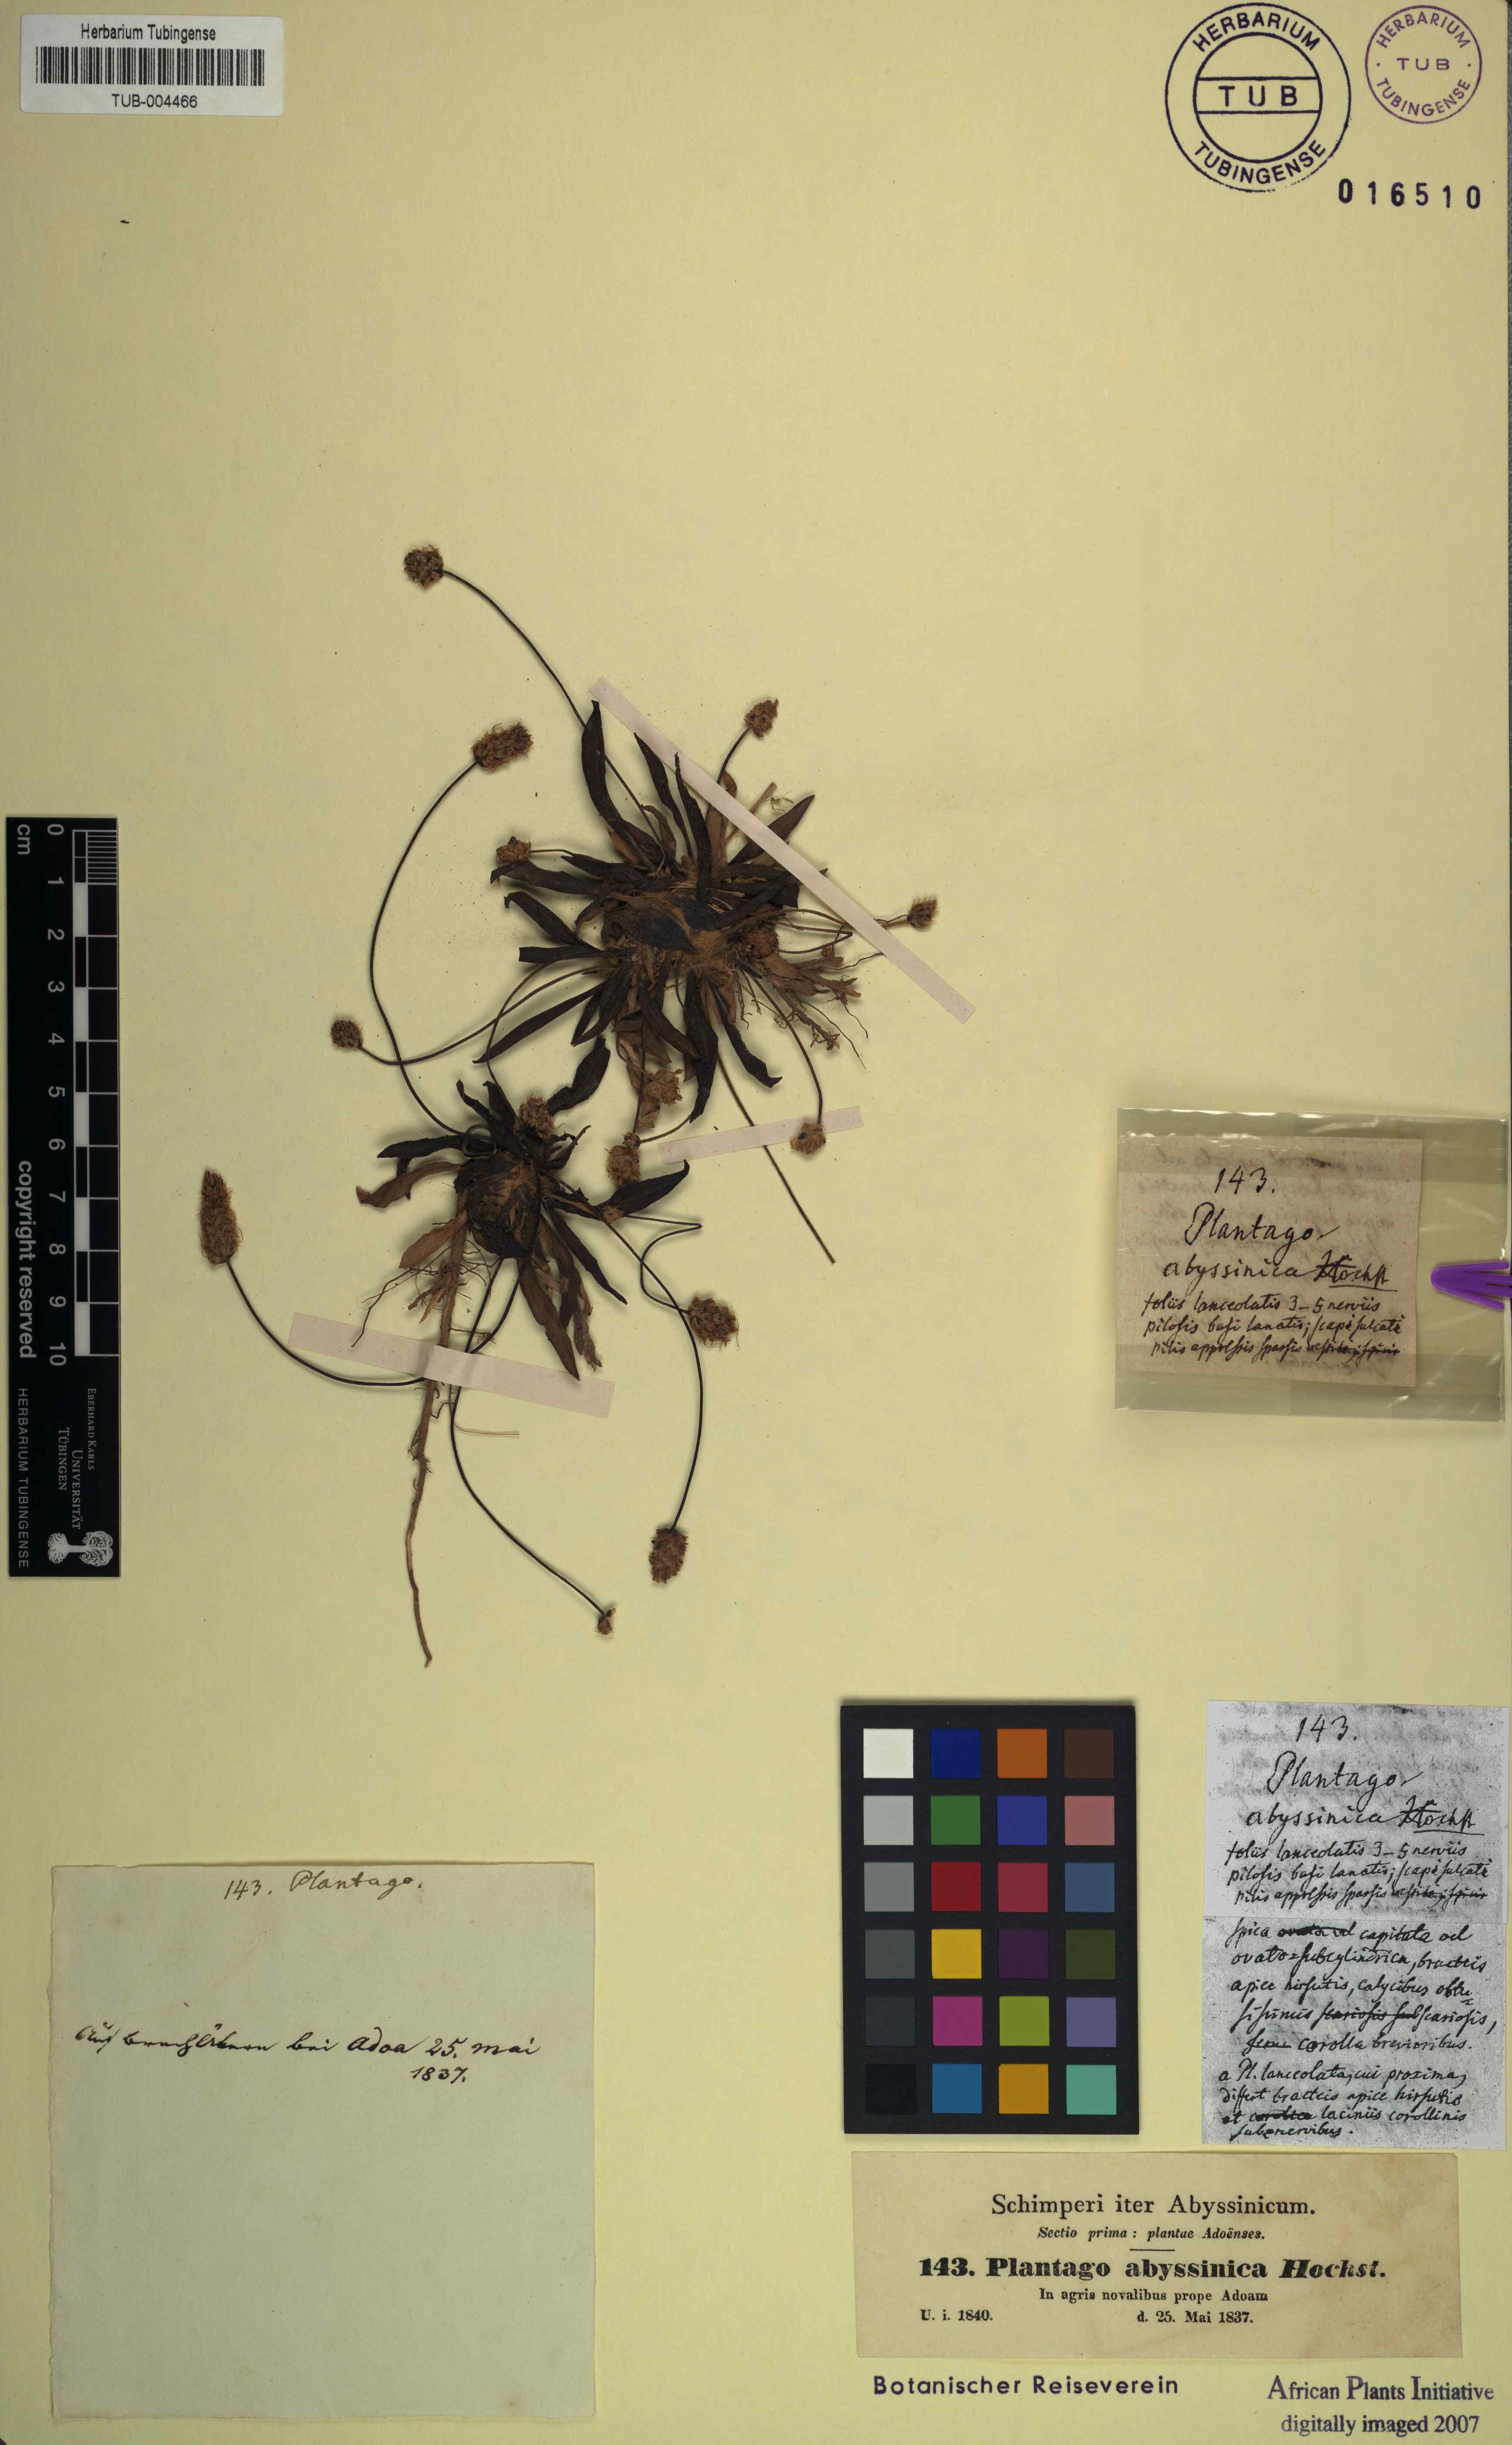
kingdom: Plantae
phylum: Tracheophyta
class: Magnoliopsida
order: Lamiales
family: Plantaginaceae
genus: Plantago
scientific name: Plantago lanceolata
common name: Ribwort plantain
